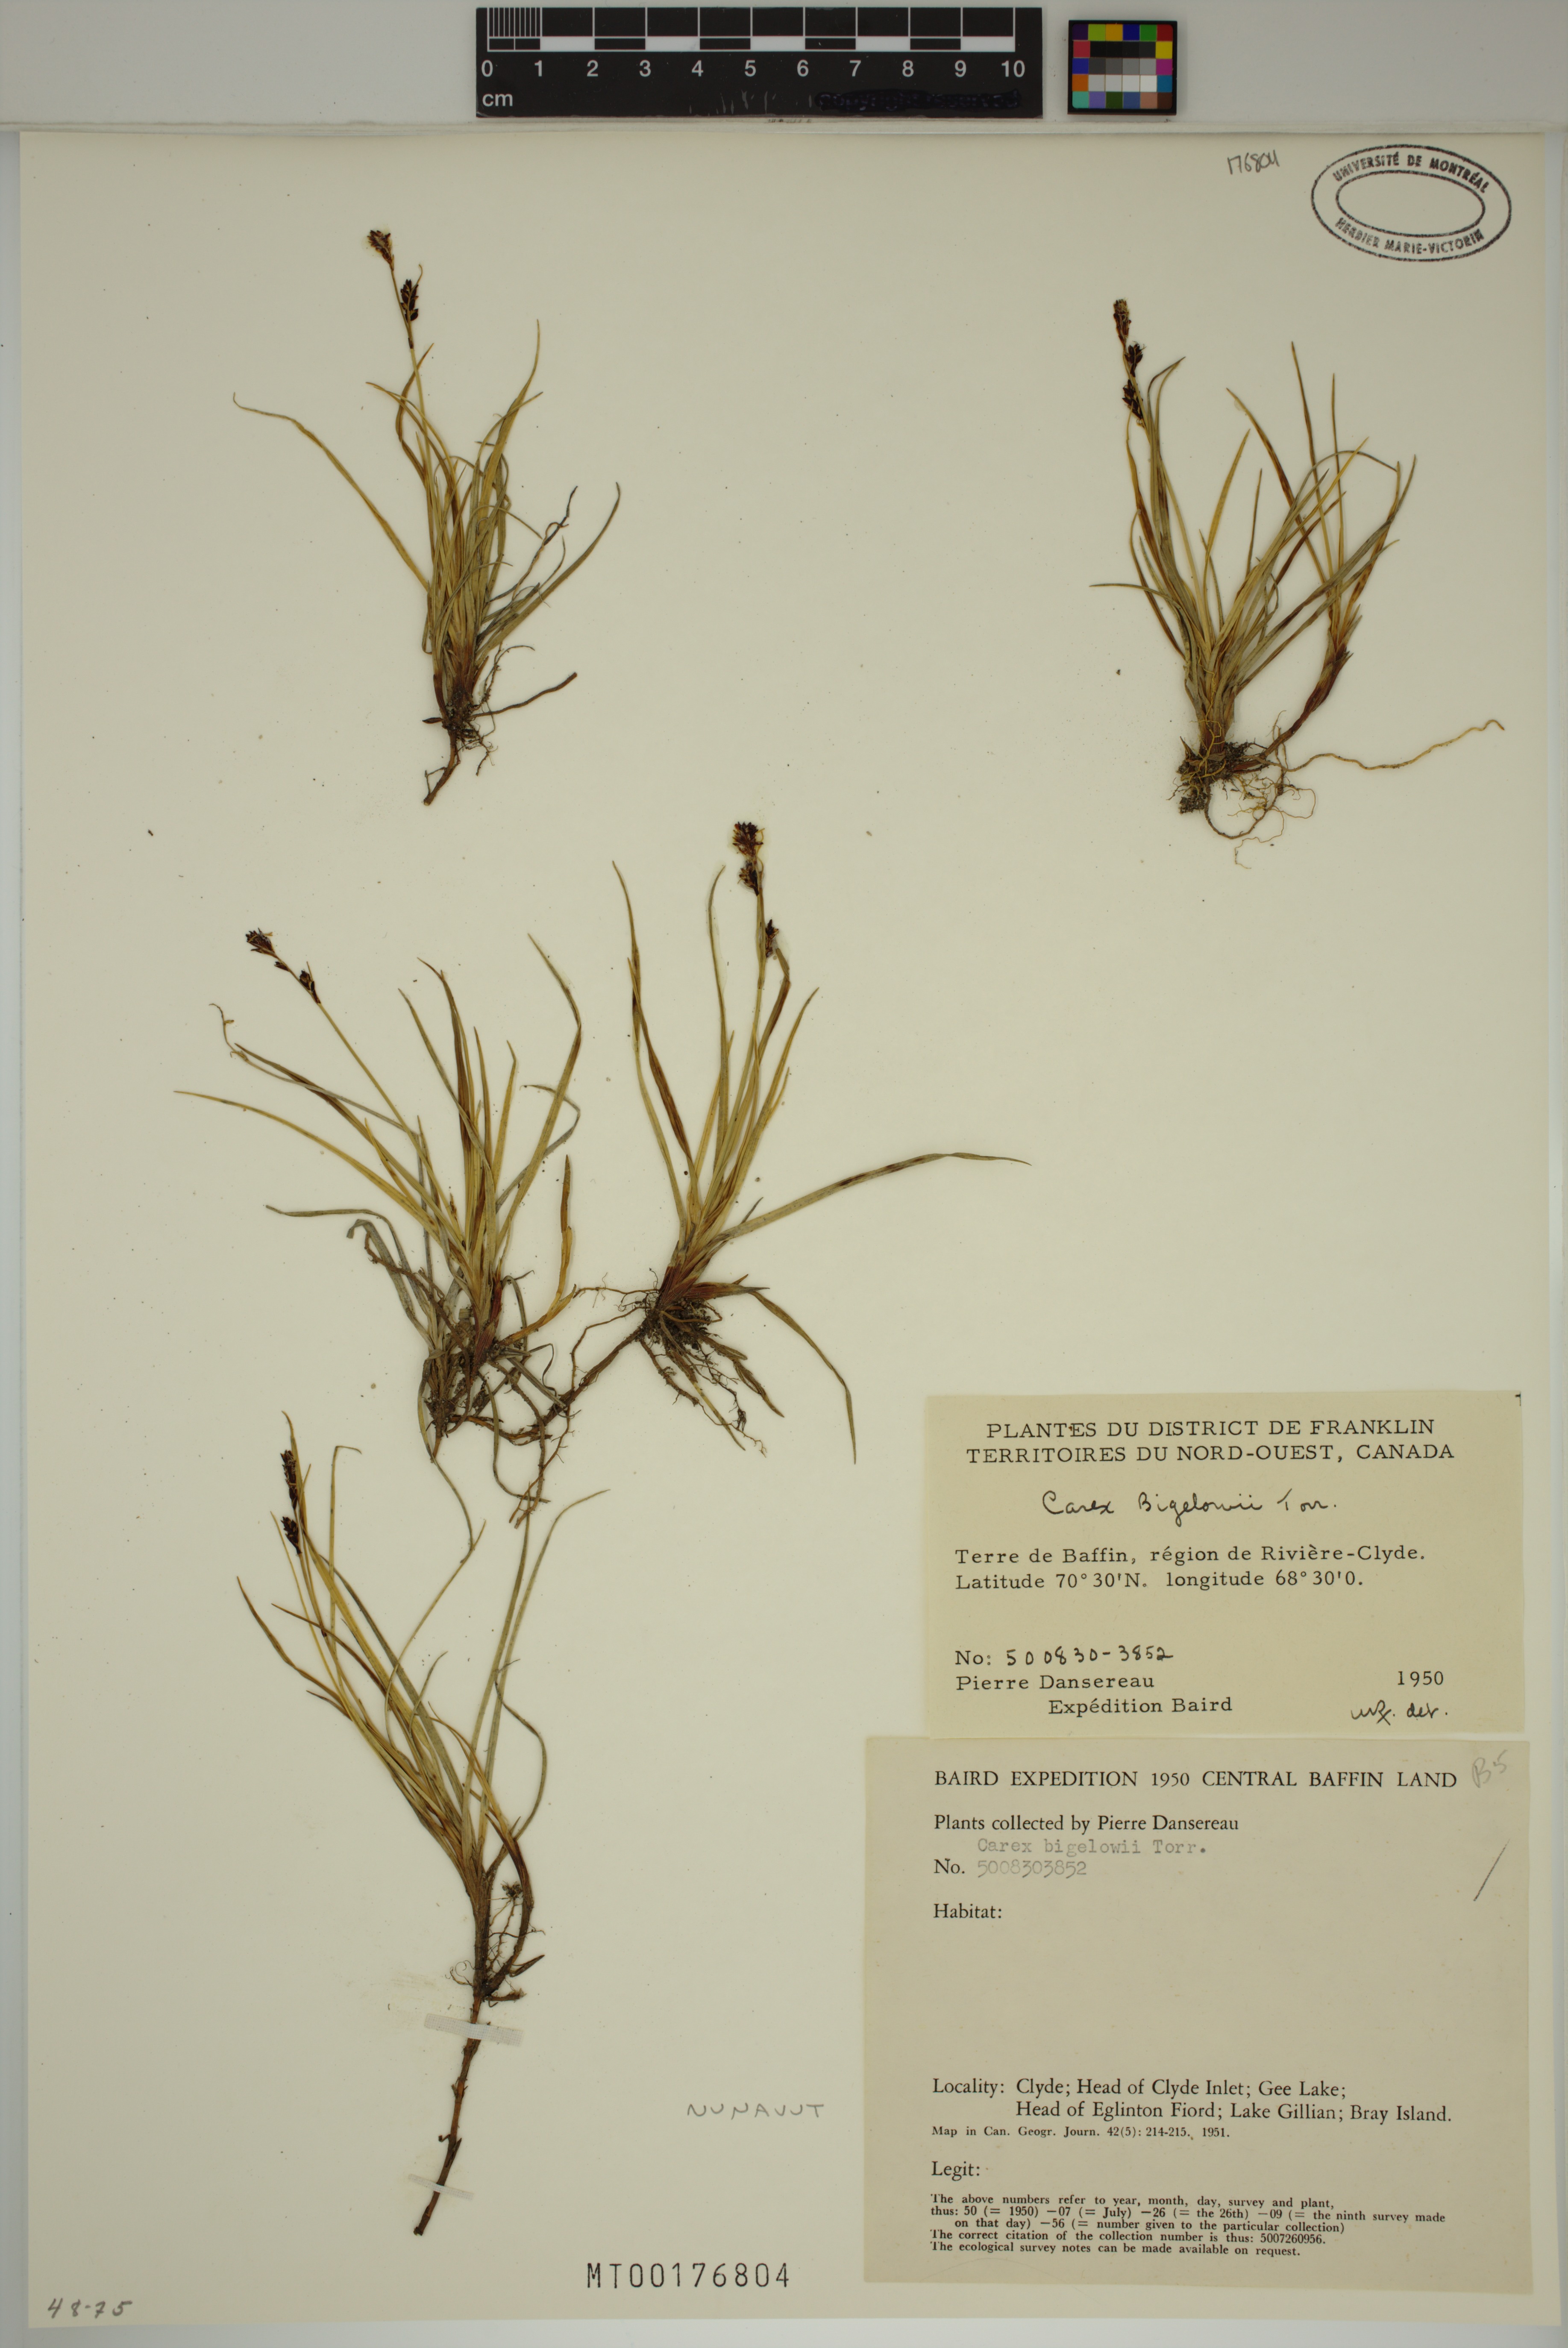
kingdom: Plantae
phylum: Tracheophyta
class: Liliopsida
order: Poales
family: Cyperaceae
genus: Carex
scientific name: Carex bigelowii
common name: Stiff sedge
